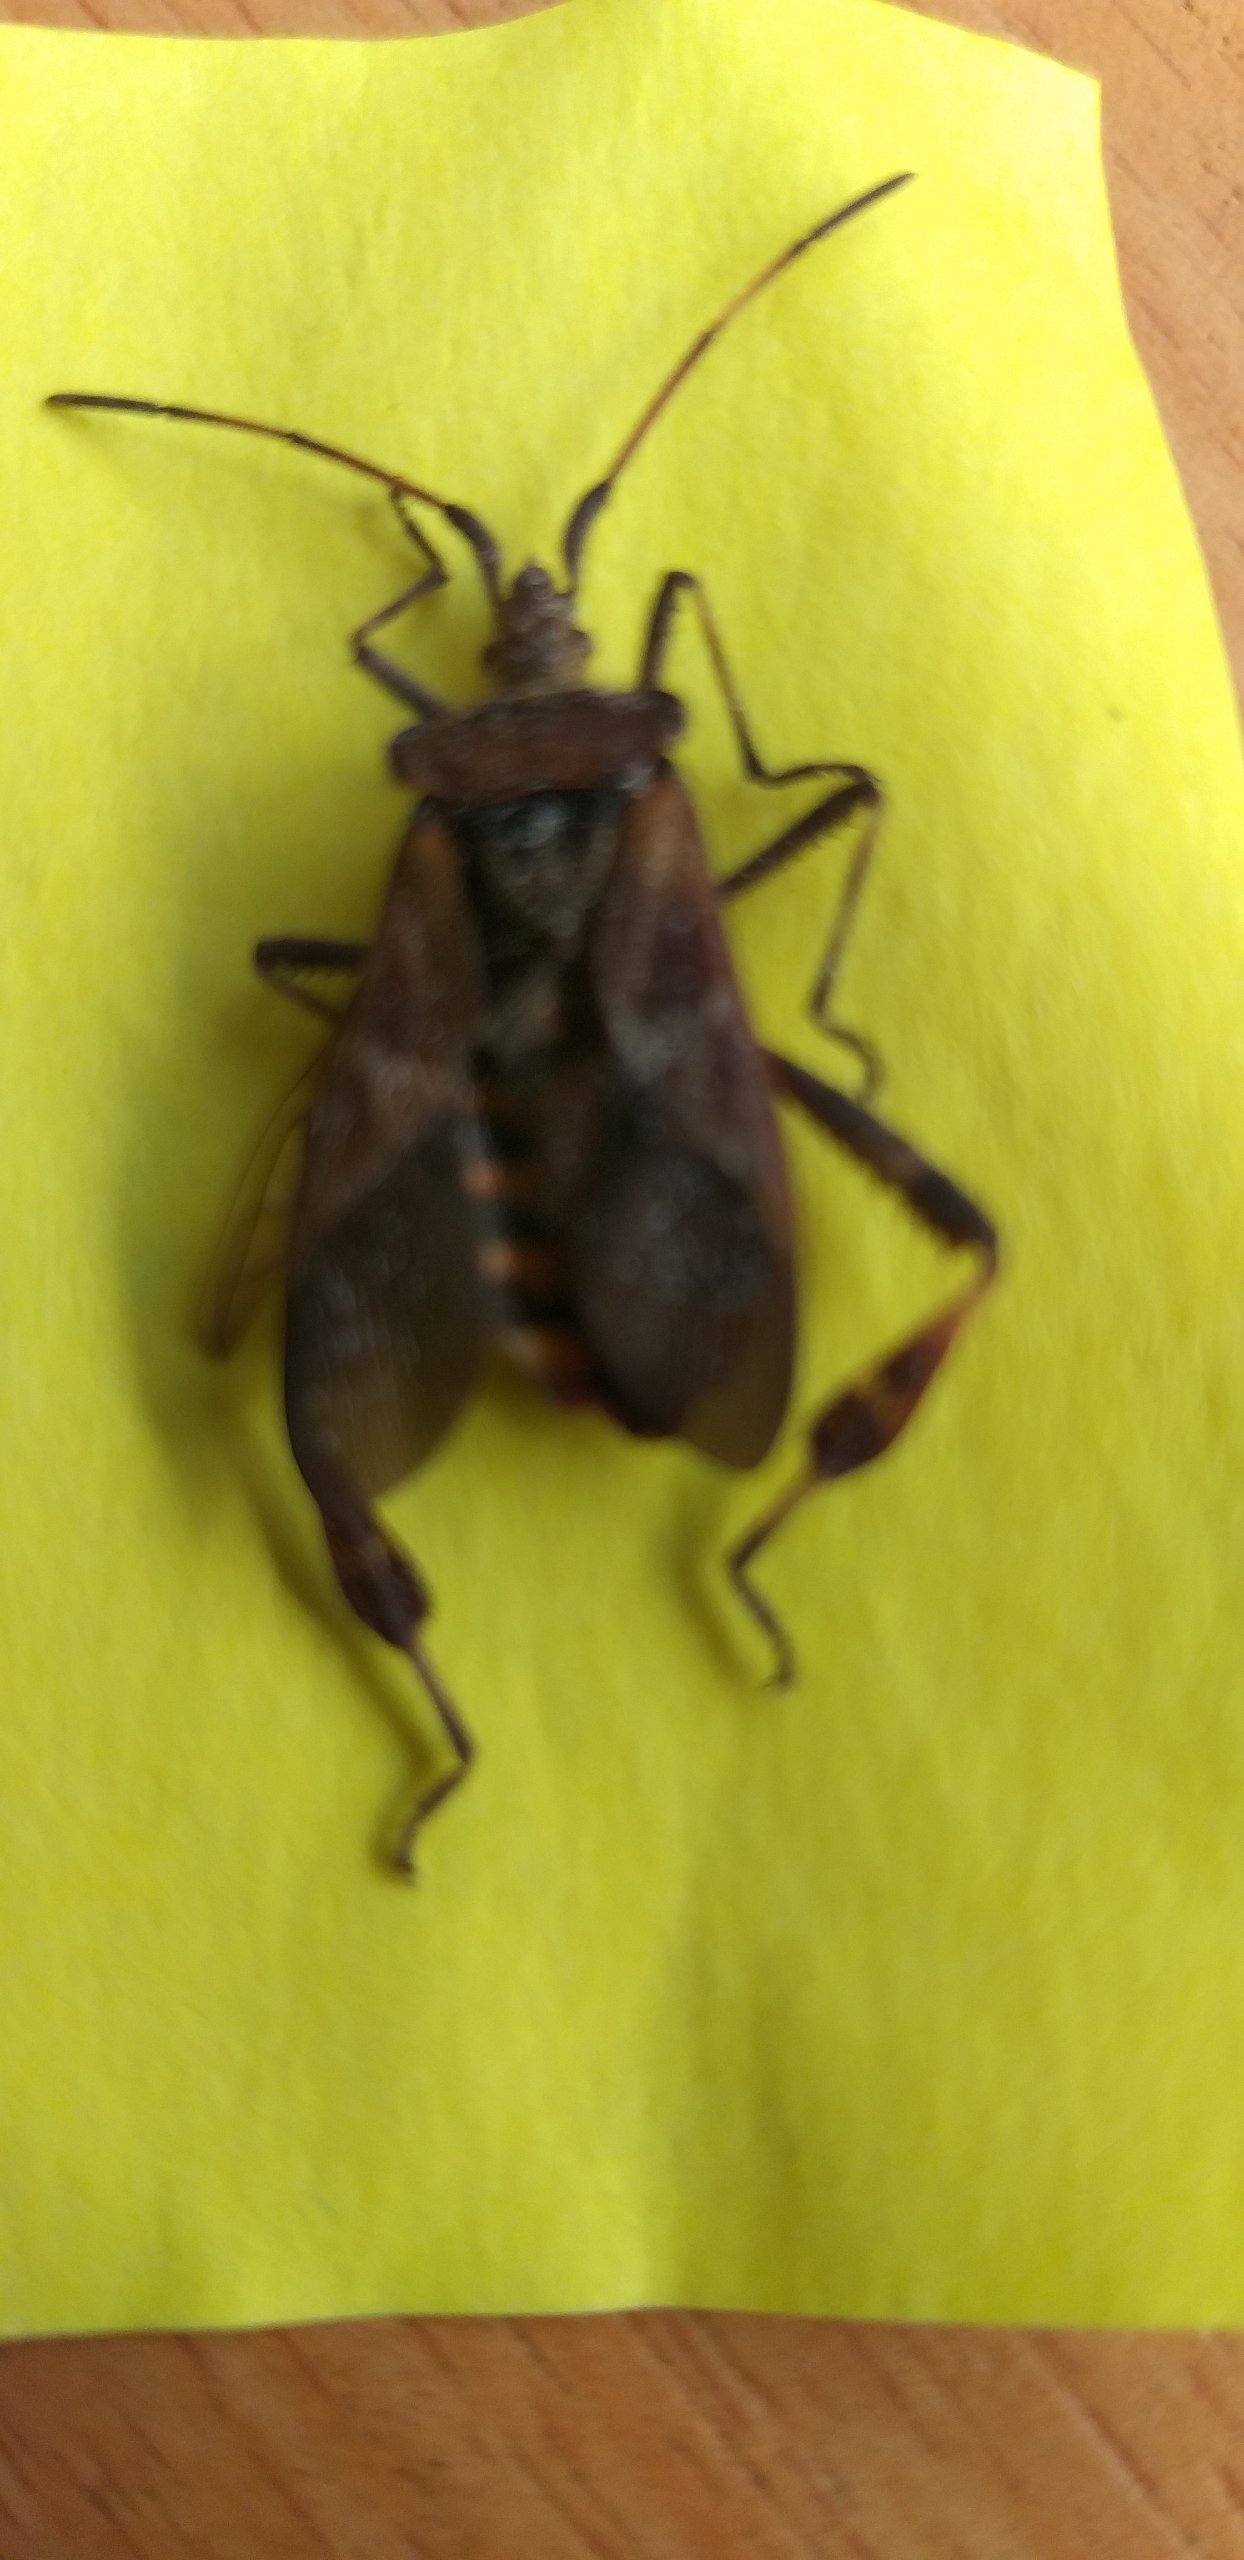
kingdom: Animalia
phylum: Arthropoda
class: Insecta
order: Hemiptera
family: Coreidae
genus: Leptoglossus
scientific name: Leptoglossus occidentalis
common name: Amerikansk fyrretæge
